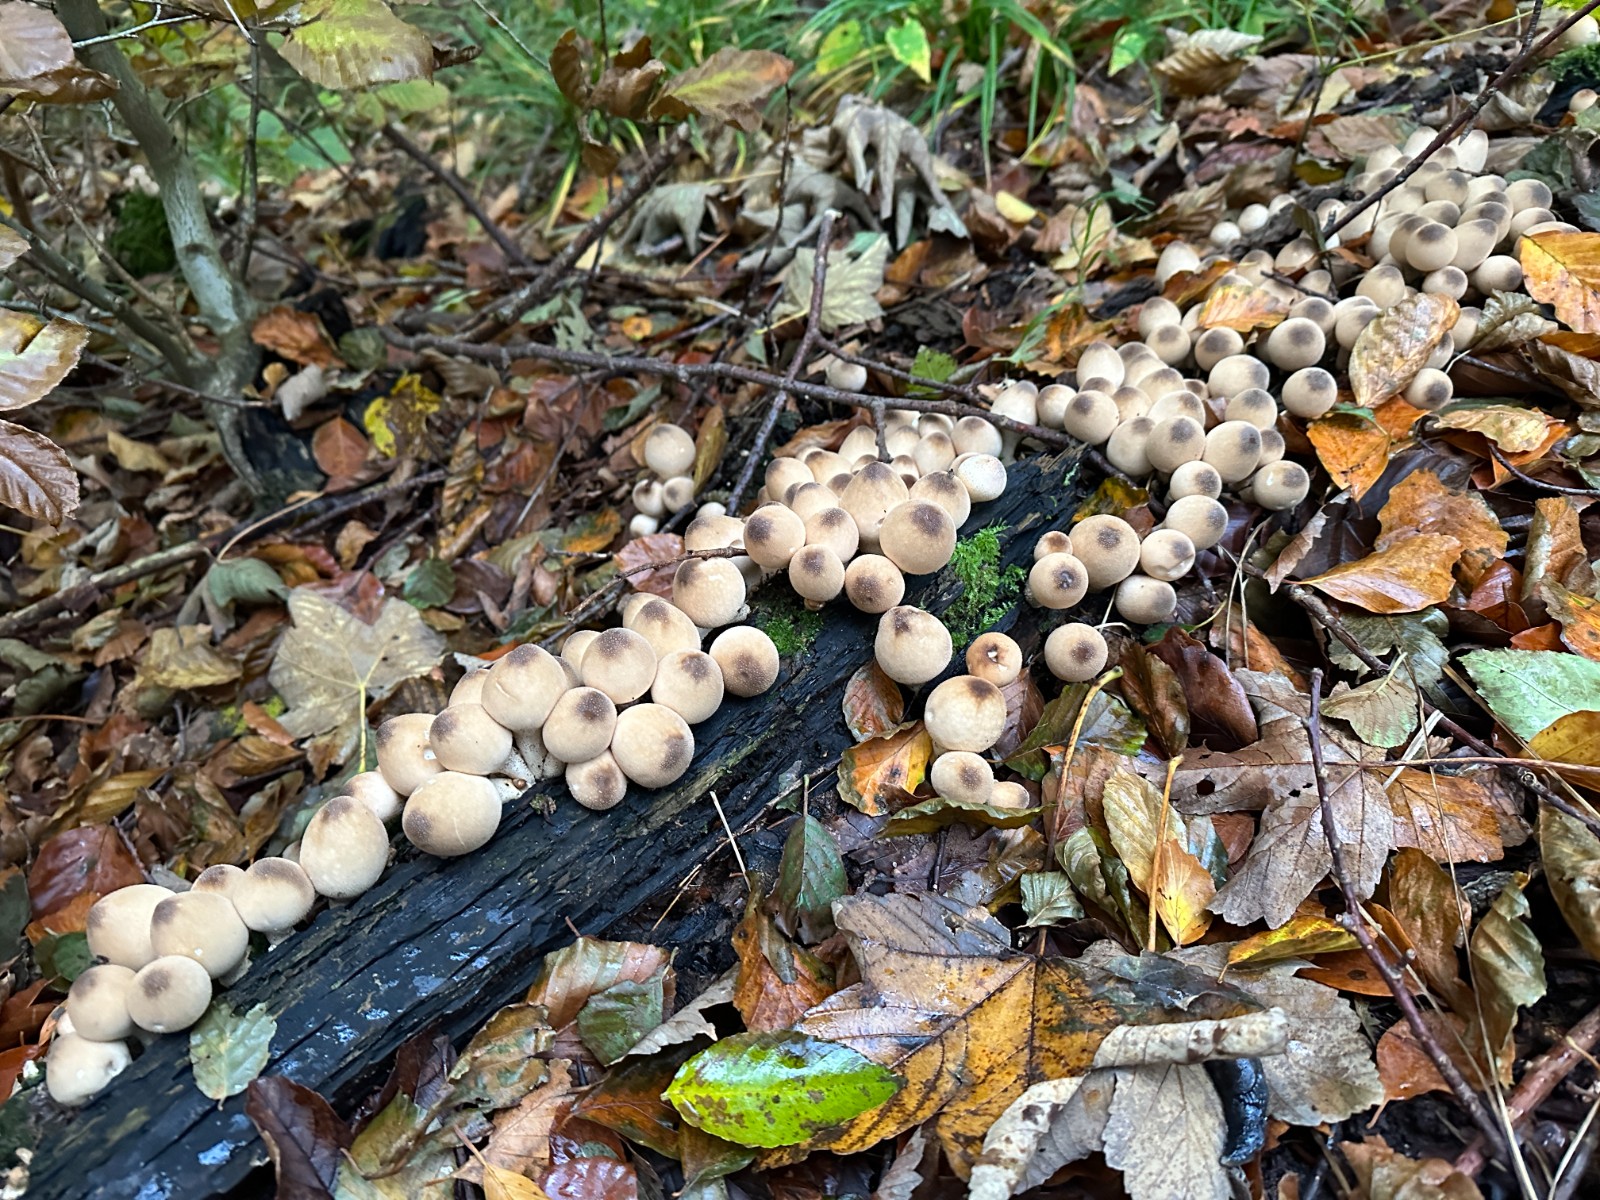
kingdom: Fungi
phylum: Basidiomycota
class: Agaricomycetes
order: Agaricales
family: Lycoperdaceae
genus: Apioperdon
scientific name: Apioperdon pyriforme
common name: pære-støvbold
